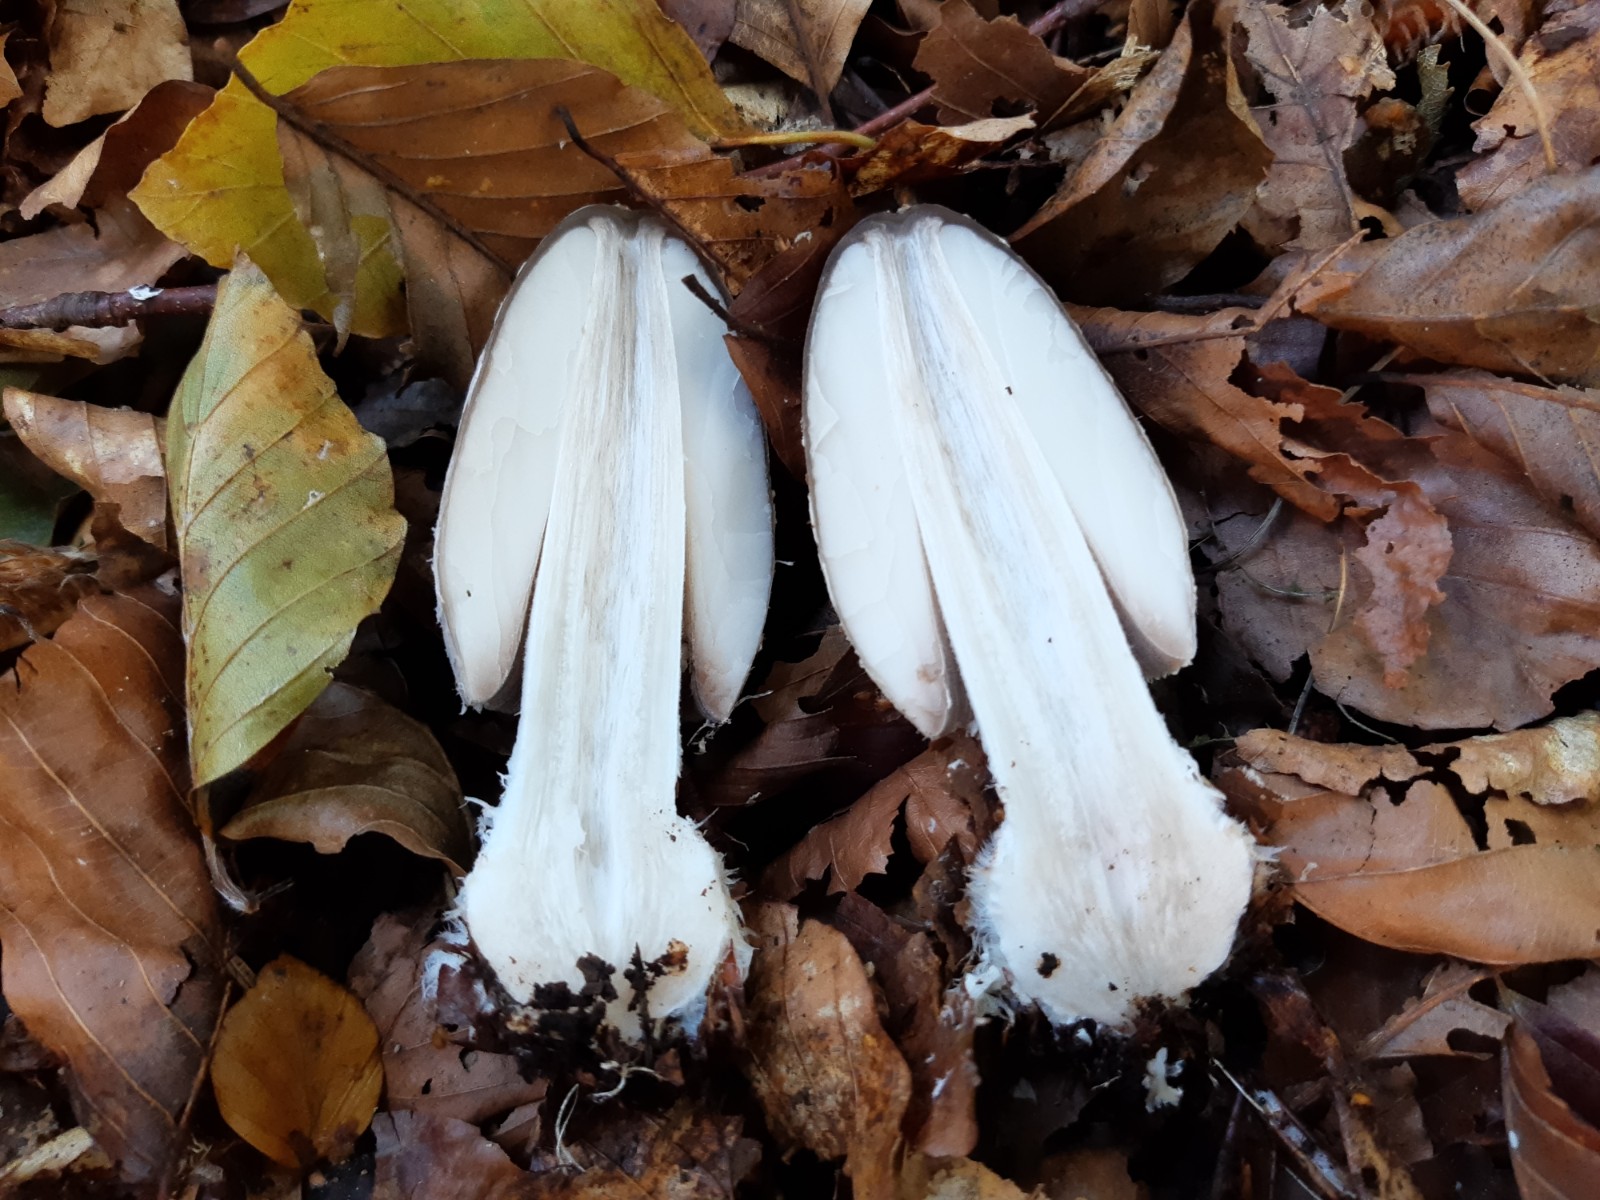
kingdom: Fungi
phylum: Basidiomycota
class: Agaricomycetes
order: Agaricales
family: Psathyrellaceae
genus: Coprinopsis
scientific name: Coprinopsis picacea
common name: skade-blækhat
